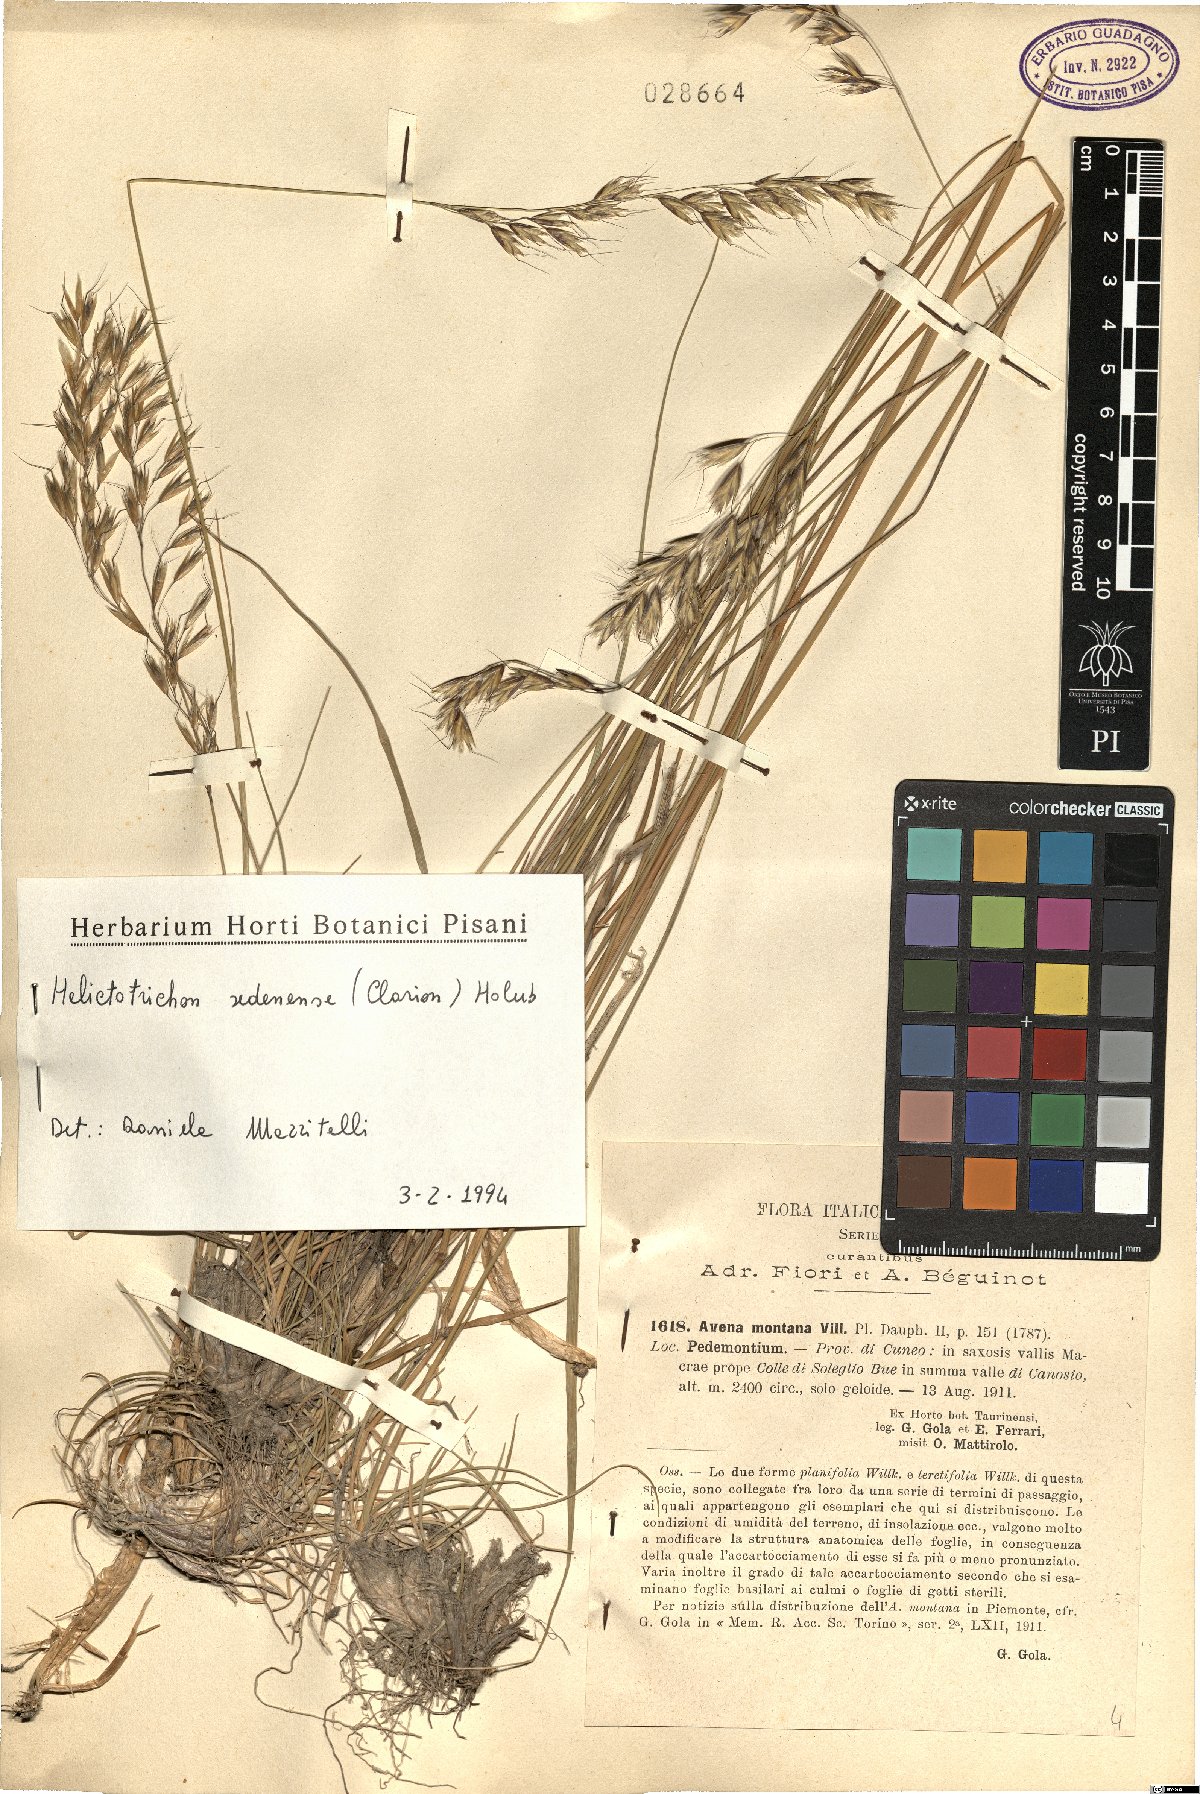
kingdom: Plantae
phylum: Tracheophyta
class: Liliopsida
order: Poales
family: Poaceae
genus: Helictotrichon
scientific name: Helictotrichon sedenense
